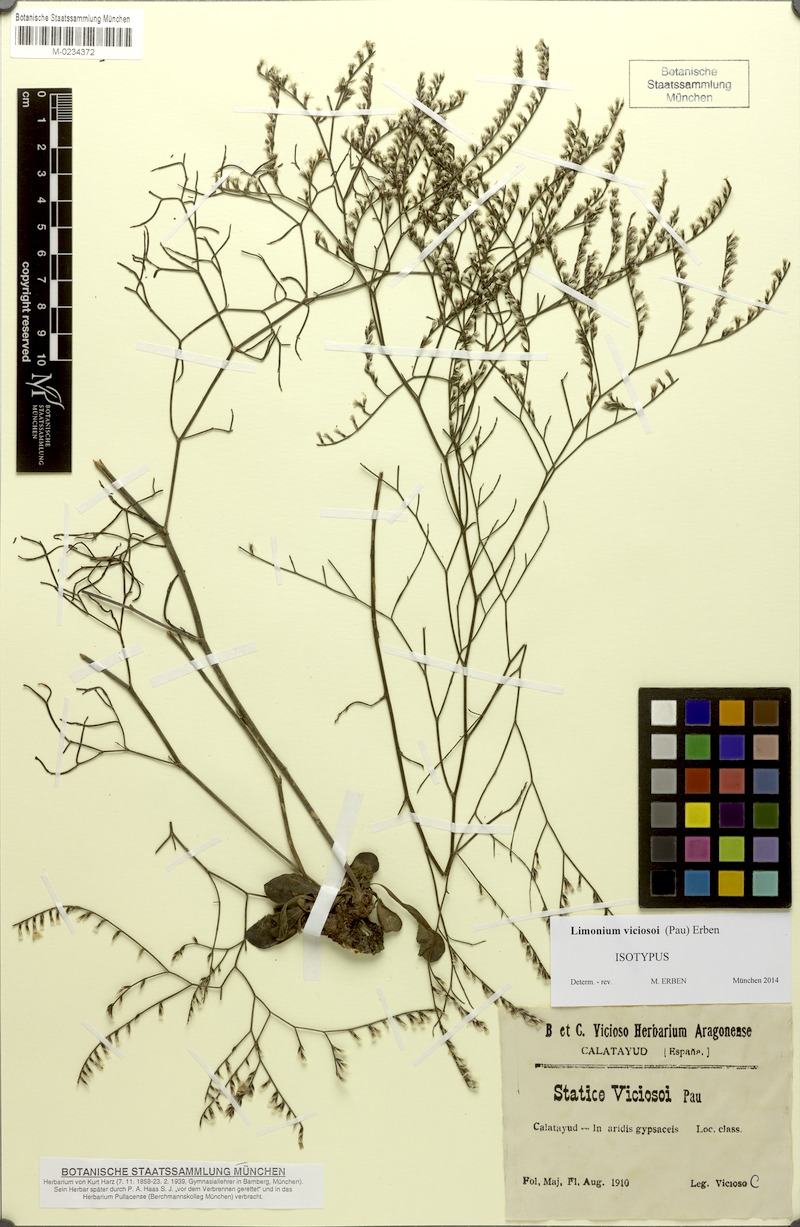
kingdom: Plantae
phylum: Tracheophyta
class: Magnoliopsida
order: Caryophyllales
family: Plumbaginaceae
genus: Limonium
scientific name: Limonium viciosoi
